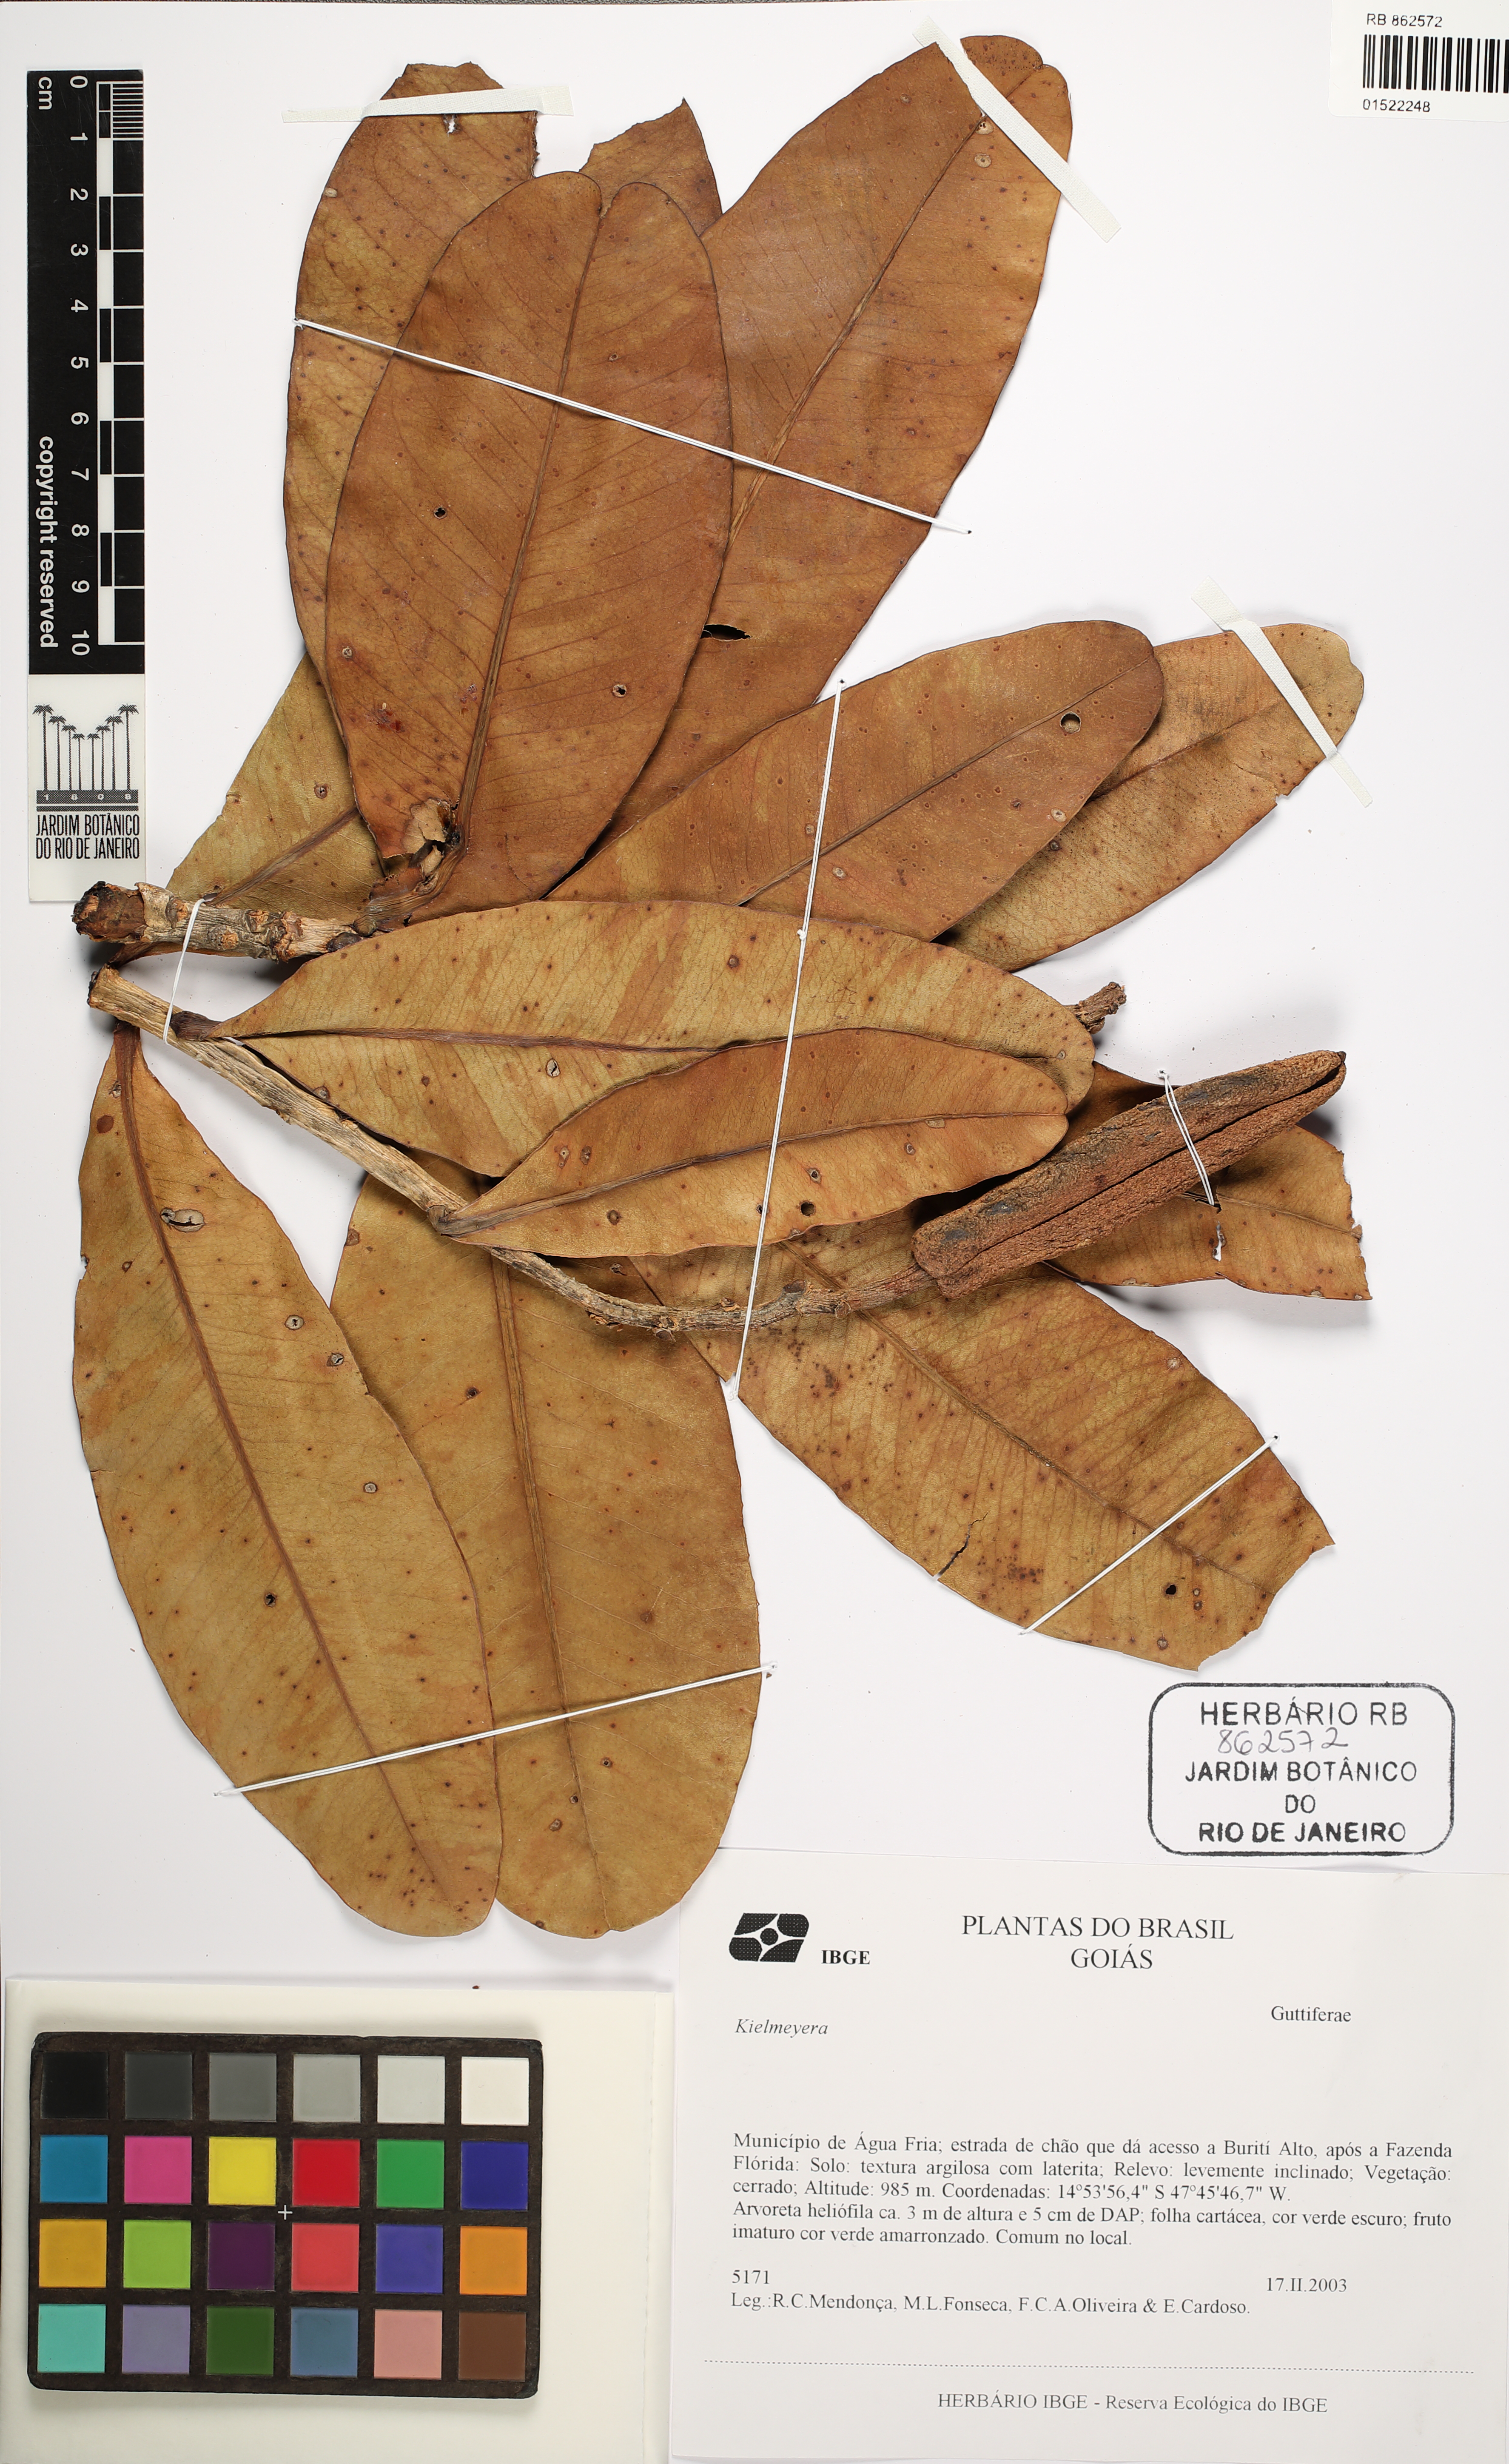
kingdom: Plantae
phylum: Tracheophyta
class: Magnoliopsida
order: Malpighiales
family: Calophyllaceae
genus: Kielmeyera
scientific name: Kielmeyera
